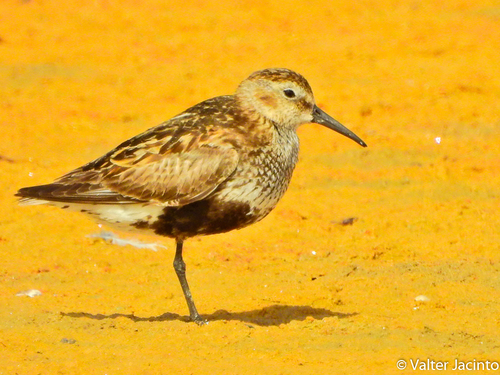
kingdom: Animalia
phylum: Chordata
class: Aves
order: Charadriiformes
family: Scolopacidae
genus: Calidris
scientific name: Calidris alpina
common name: Dunlin
